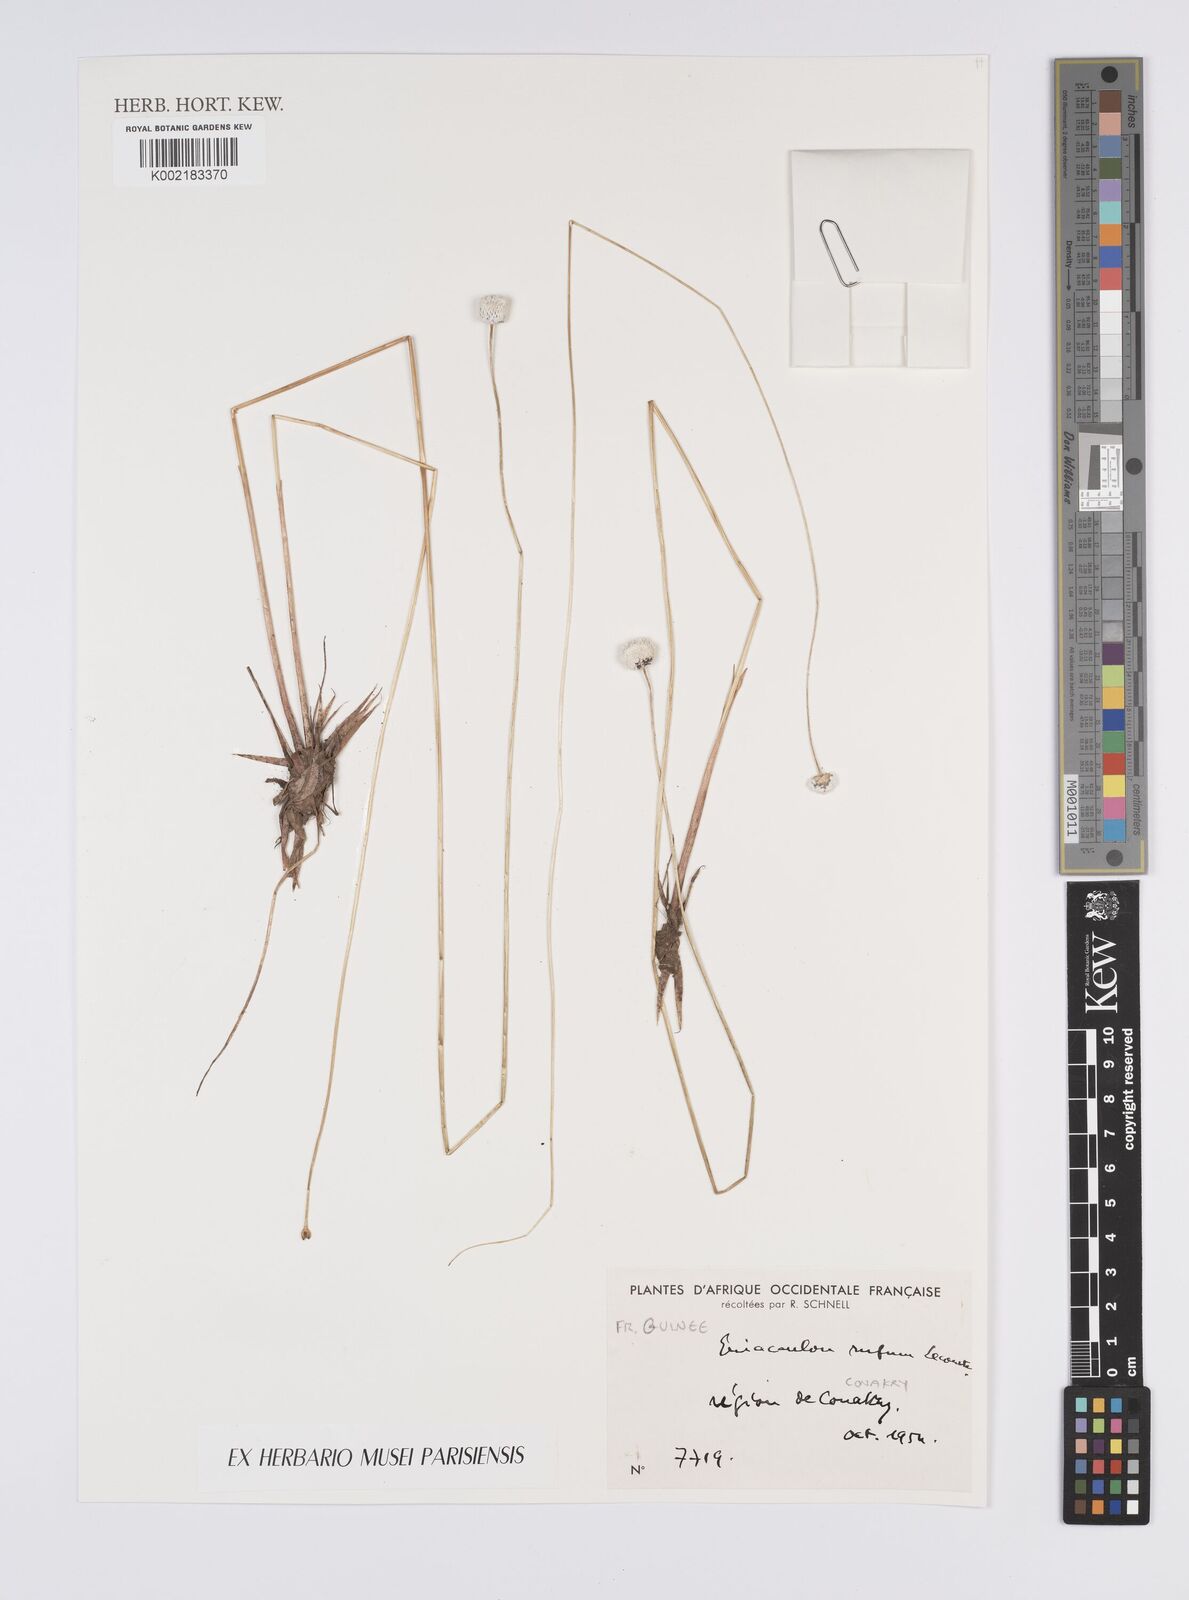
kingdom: Plantae
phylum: Tracheophyta
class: Liliopsida
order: Poales
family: Eriocaulaceae
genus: Eriocaulon
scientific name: Eriocaulon rufum
